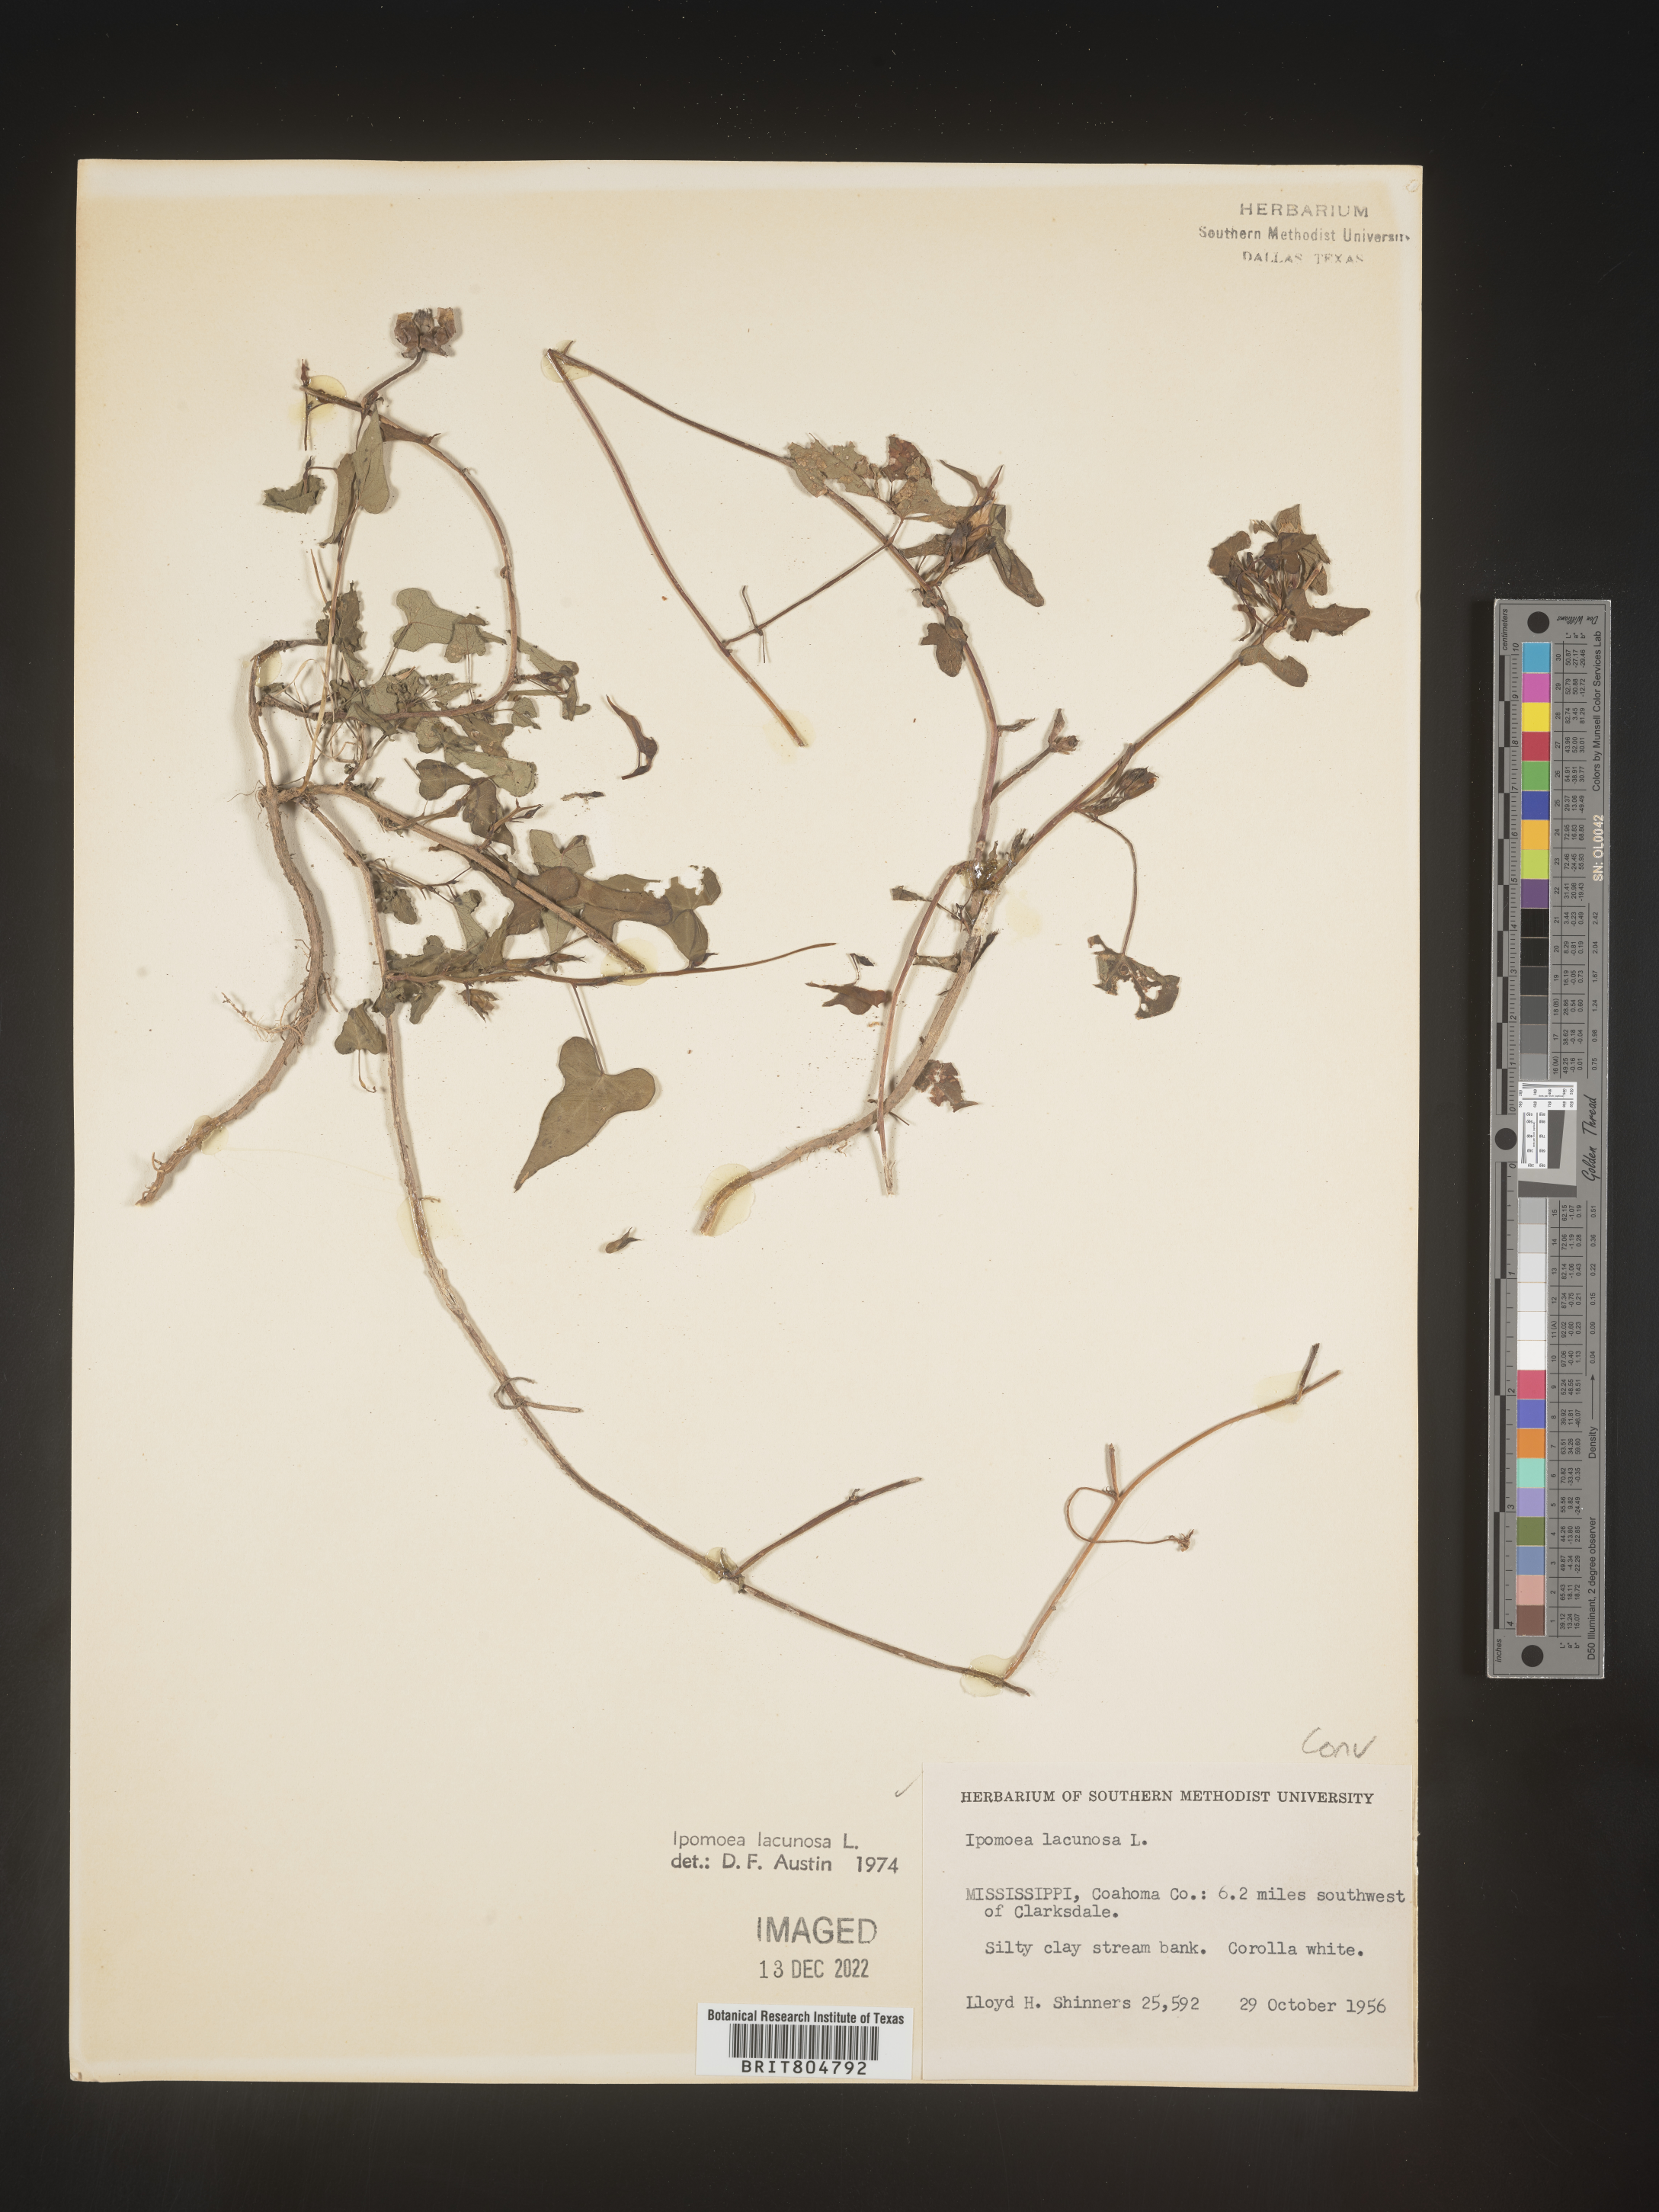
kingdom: Plantae
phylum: Tracheophyta
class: Magnoliopsida
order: Solanales
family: Convolvulaceae
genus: Ipomoea
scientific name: Ipomoea lacunosa
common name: White morning-glory
